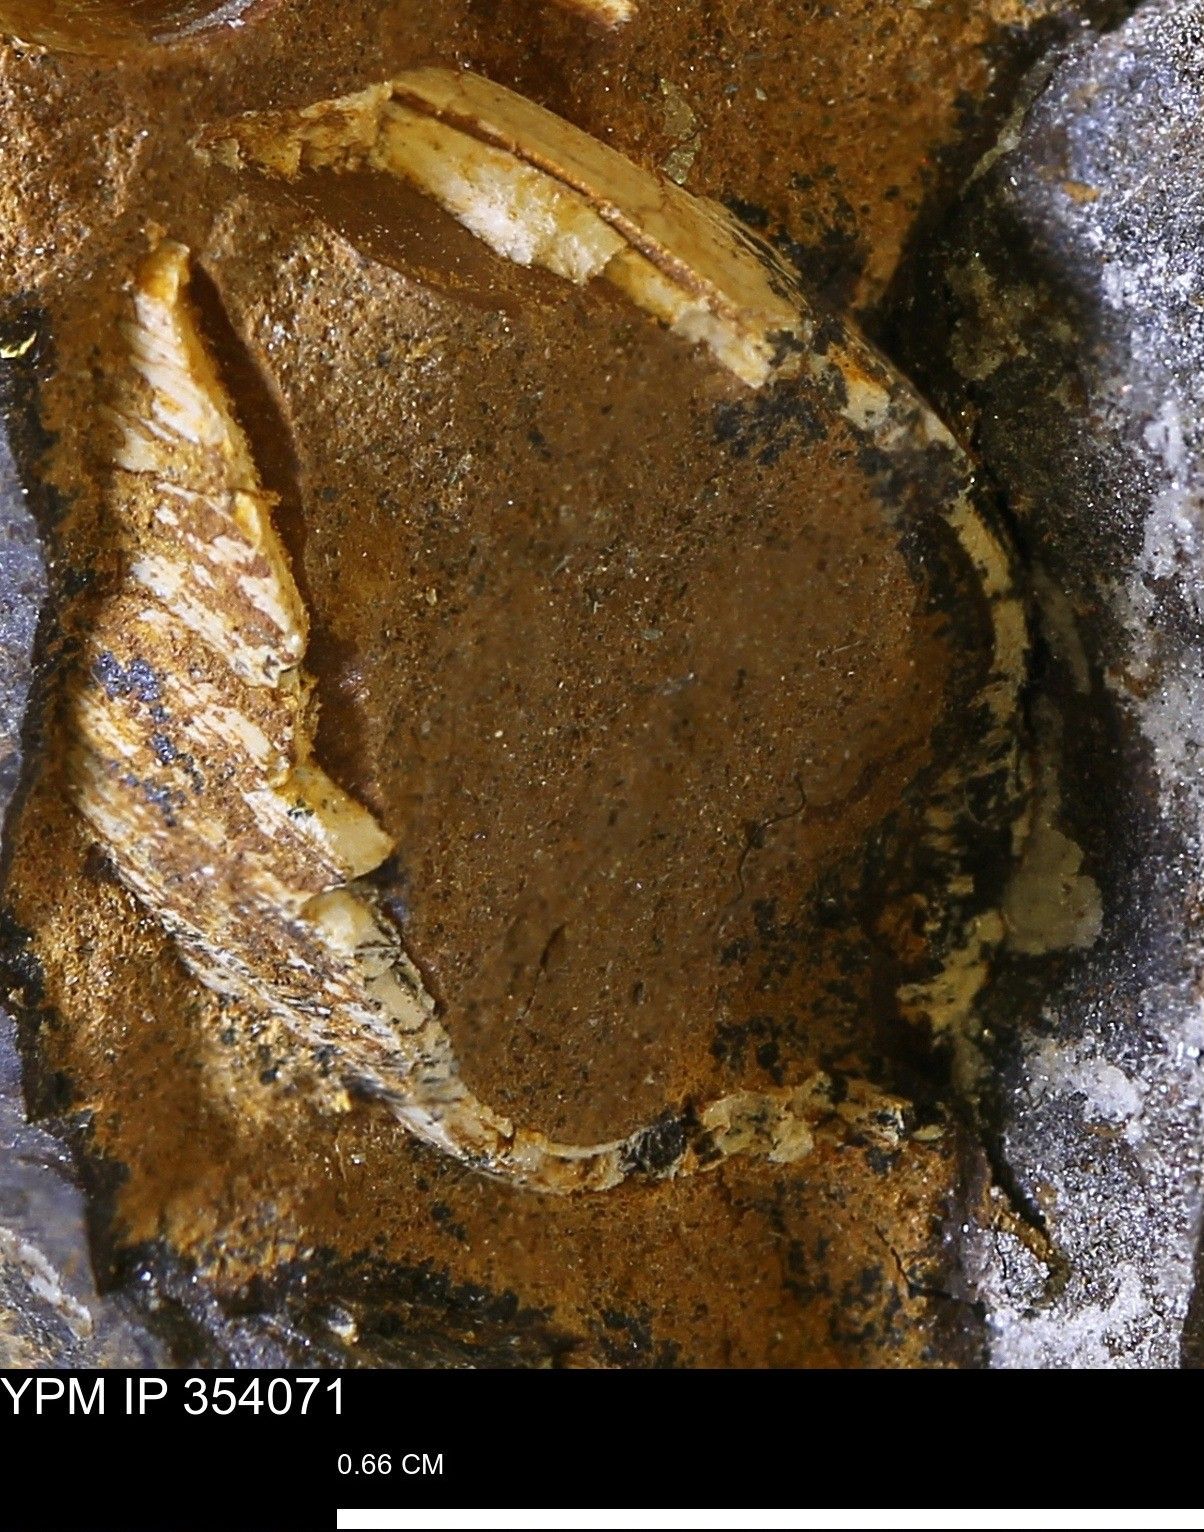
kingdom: Animalia
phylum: Mollusca
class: Bivalvia
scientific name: Bivalvia
